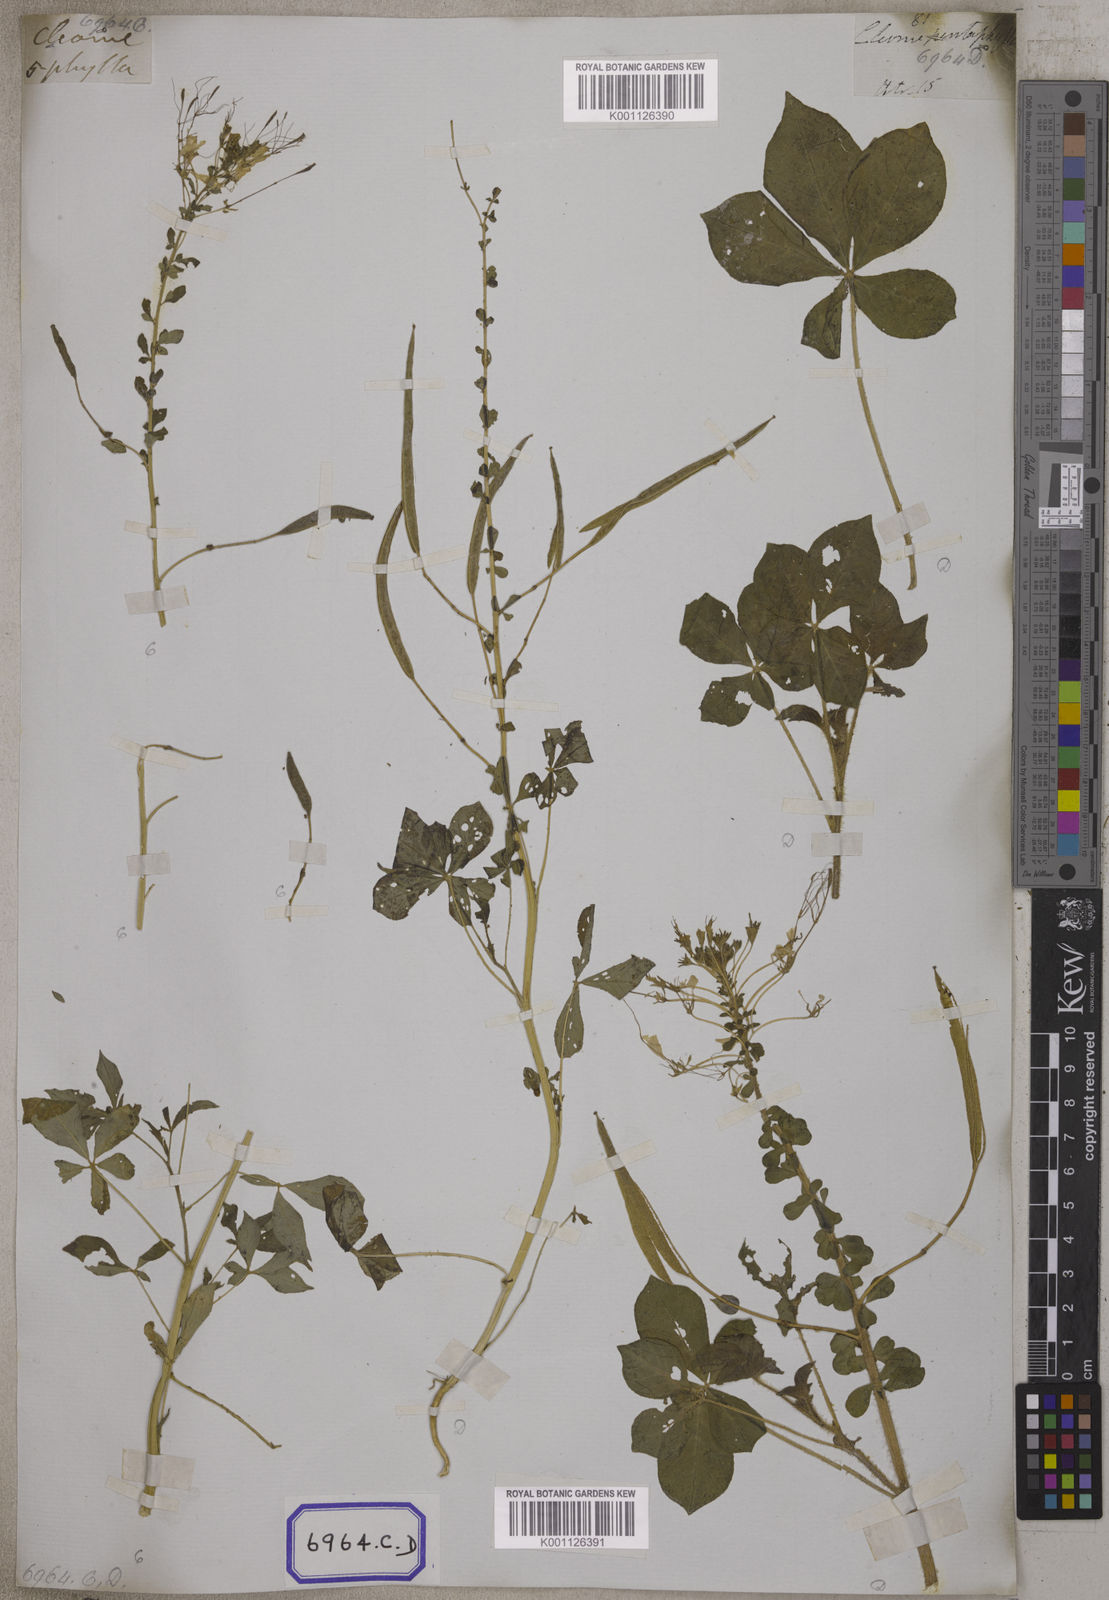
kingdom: Plantae
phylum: Tracheophyta
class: Magnoliopsida
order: Brassicales
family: Cleomaceae
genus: Gynandropsis
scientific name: Gynandropsis gynandra
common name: Spiderwisp
